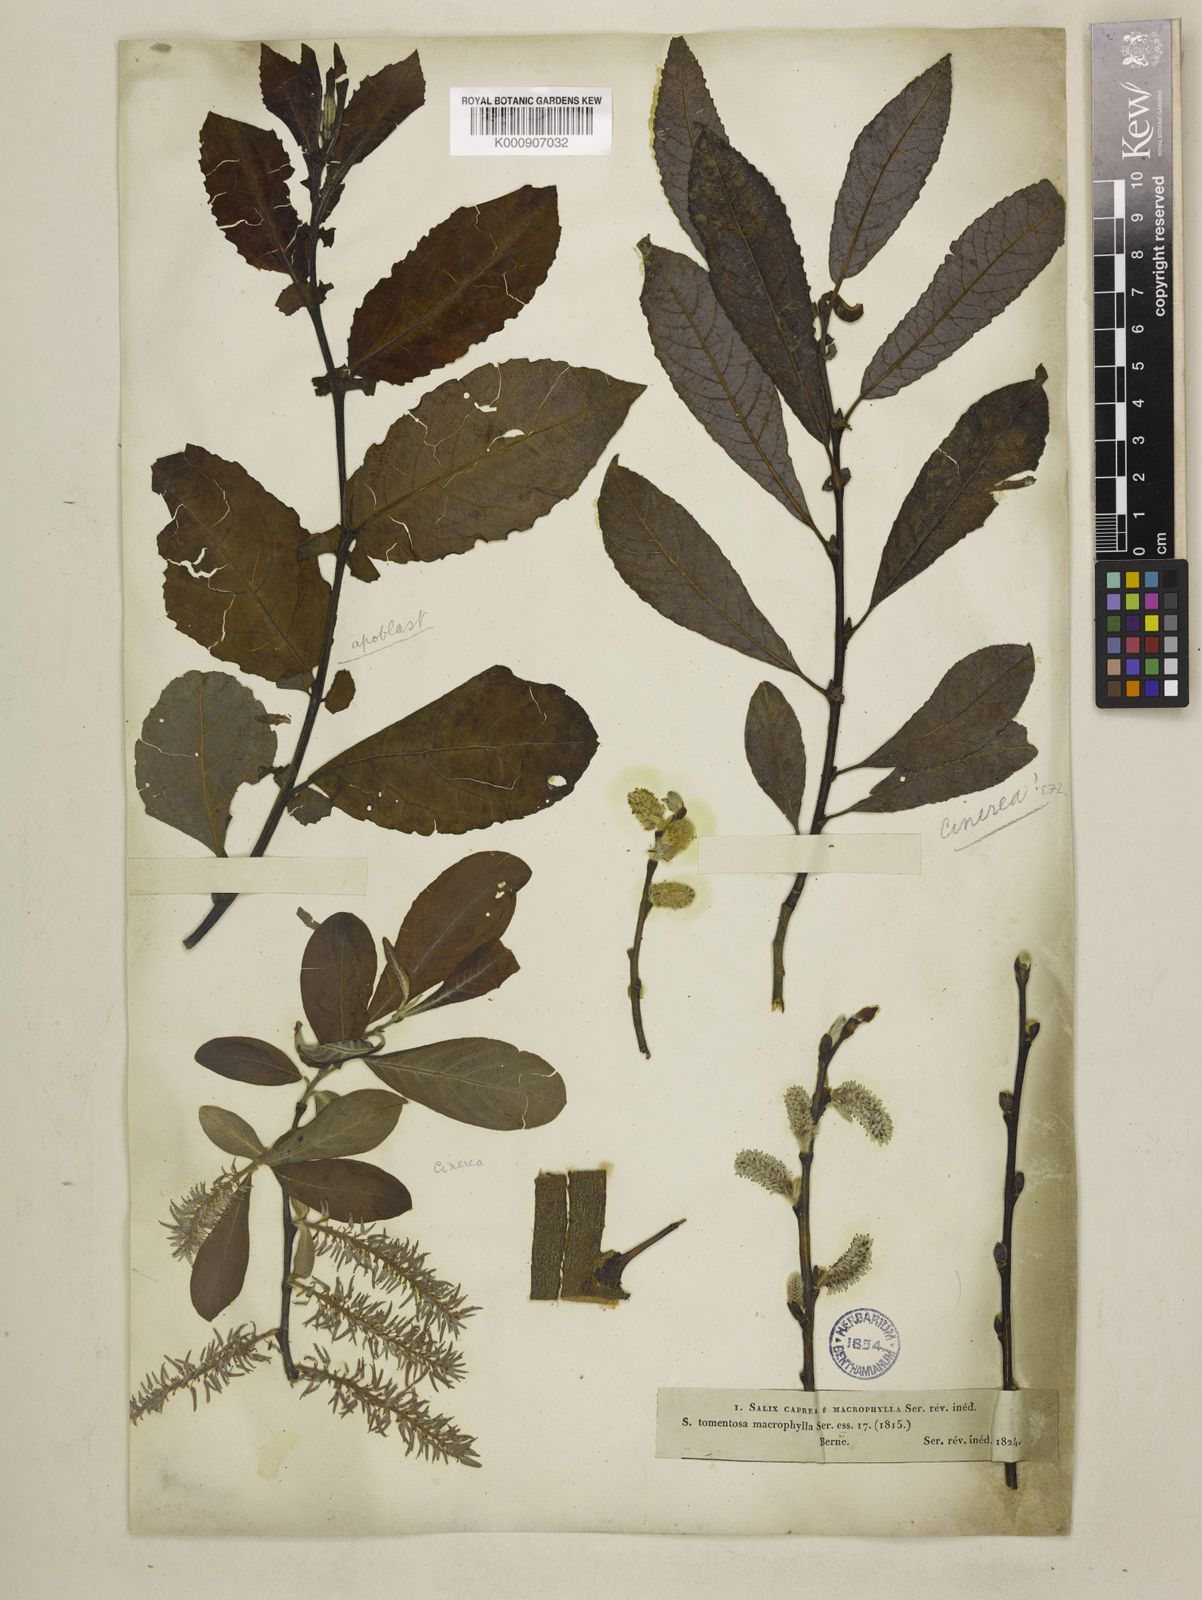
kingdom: Plantae
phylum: Tracheophyta
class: Magnoliopsida
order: Malpighiales
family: Salicaceae
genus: Salix
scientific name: Salix caprea
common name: Goat willow
